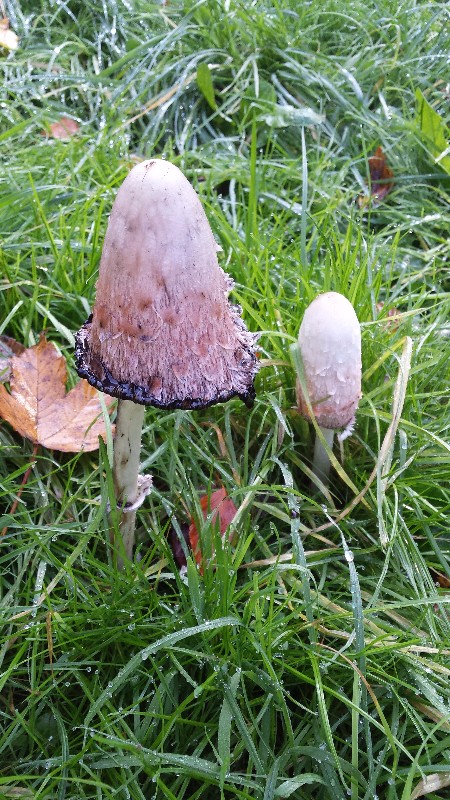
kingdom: Fungi
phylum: Basidiomycota
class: Agaricomycetes
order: Agaricales
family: Agaricaceae
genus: Coprinus
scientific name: Coprinus comatus
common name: stor parykhat
